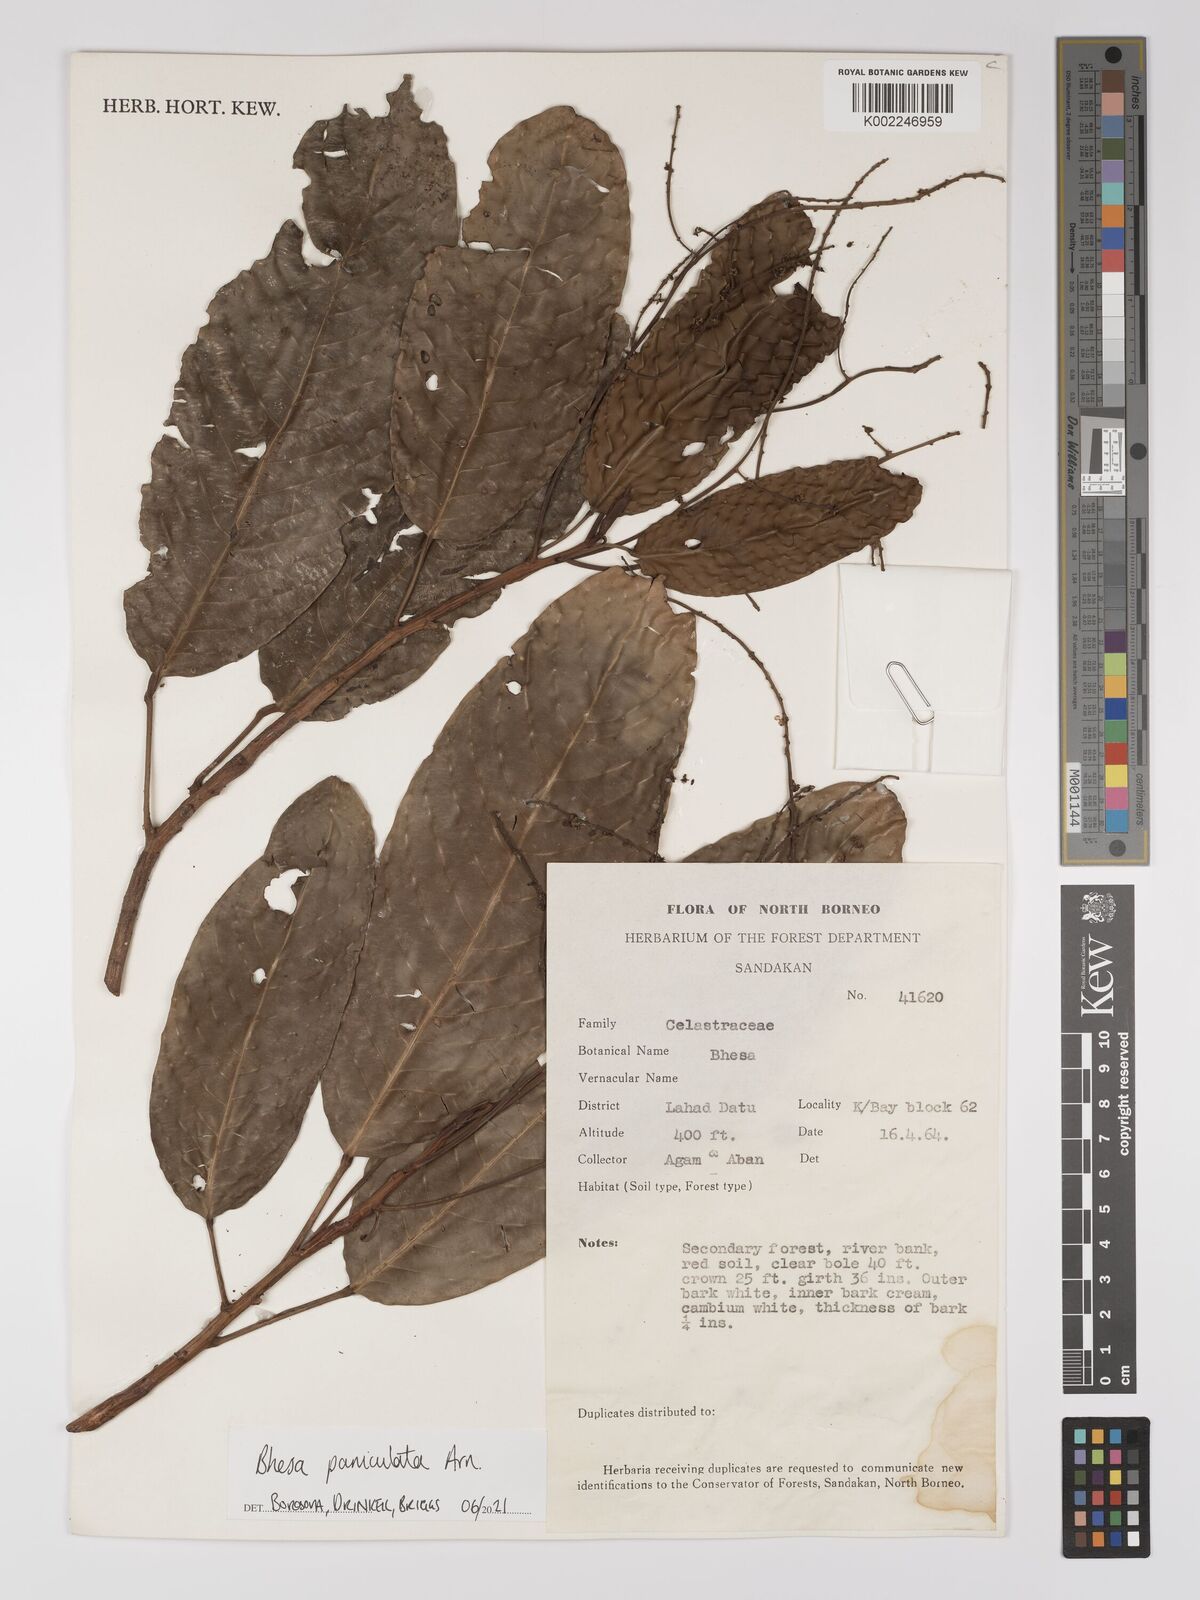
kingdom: Plantae
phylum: Tracheophyta
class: Magnoliopsida
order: Malpighiales
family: Centroplacaceae
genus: Bhesa
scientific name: Bhesa
